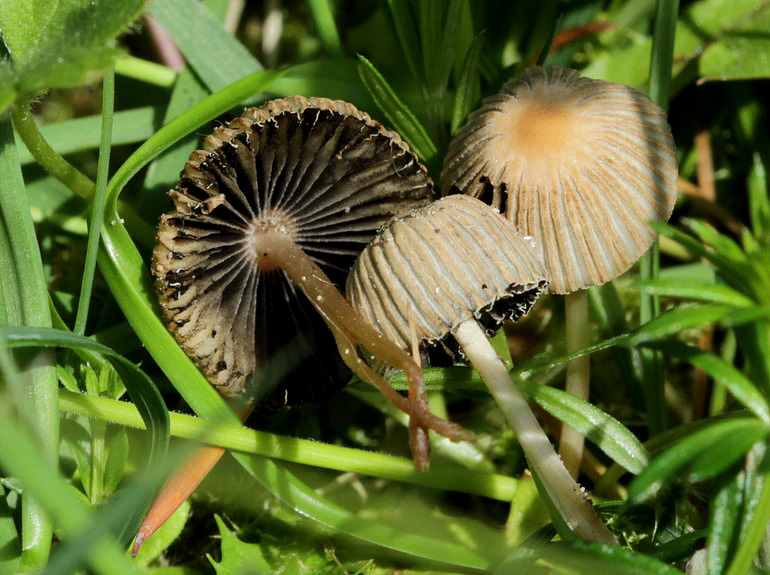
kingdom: Fungi
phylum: Basidiomycota
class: Agaricomycetes
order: Agaricales
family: Psathyrellaceae
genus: Parasola
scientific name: Parasola schroeteri
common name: bredsporet hjulhat
